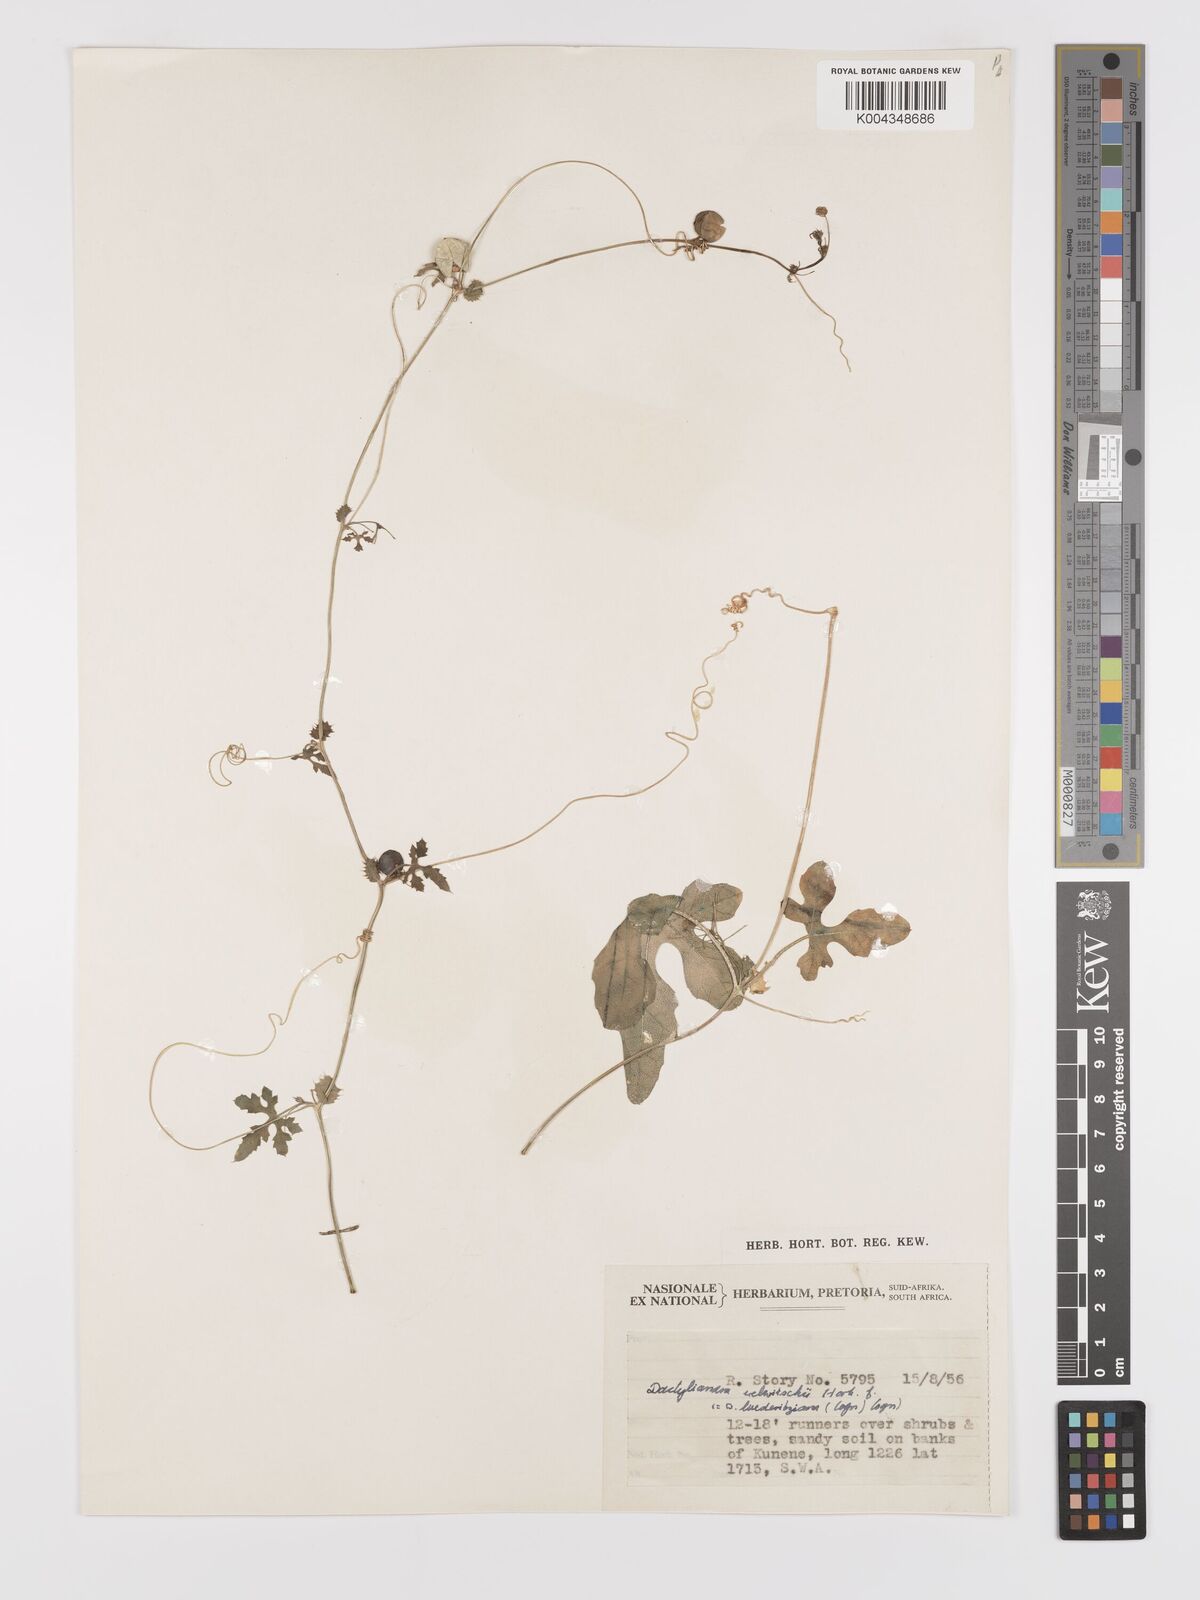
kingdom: Plantae
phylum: Tracheophyta
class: Magnoliopsida
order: Cucurbitales
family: Cucurbitaceae
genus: Dactyliandra
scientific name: Dactyliandra welwitschii
